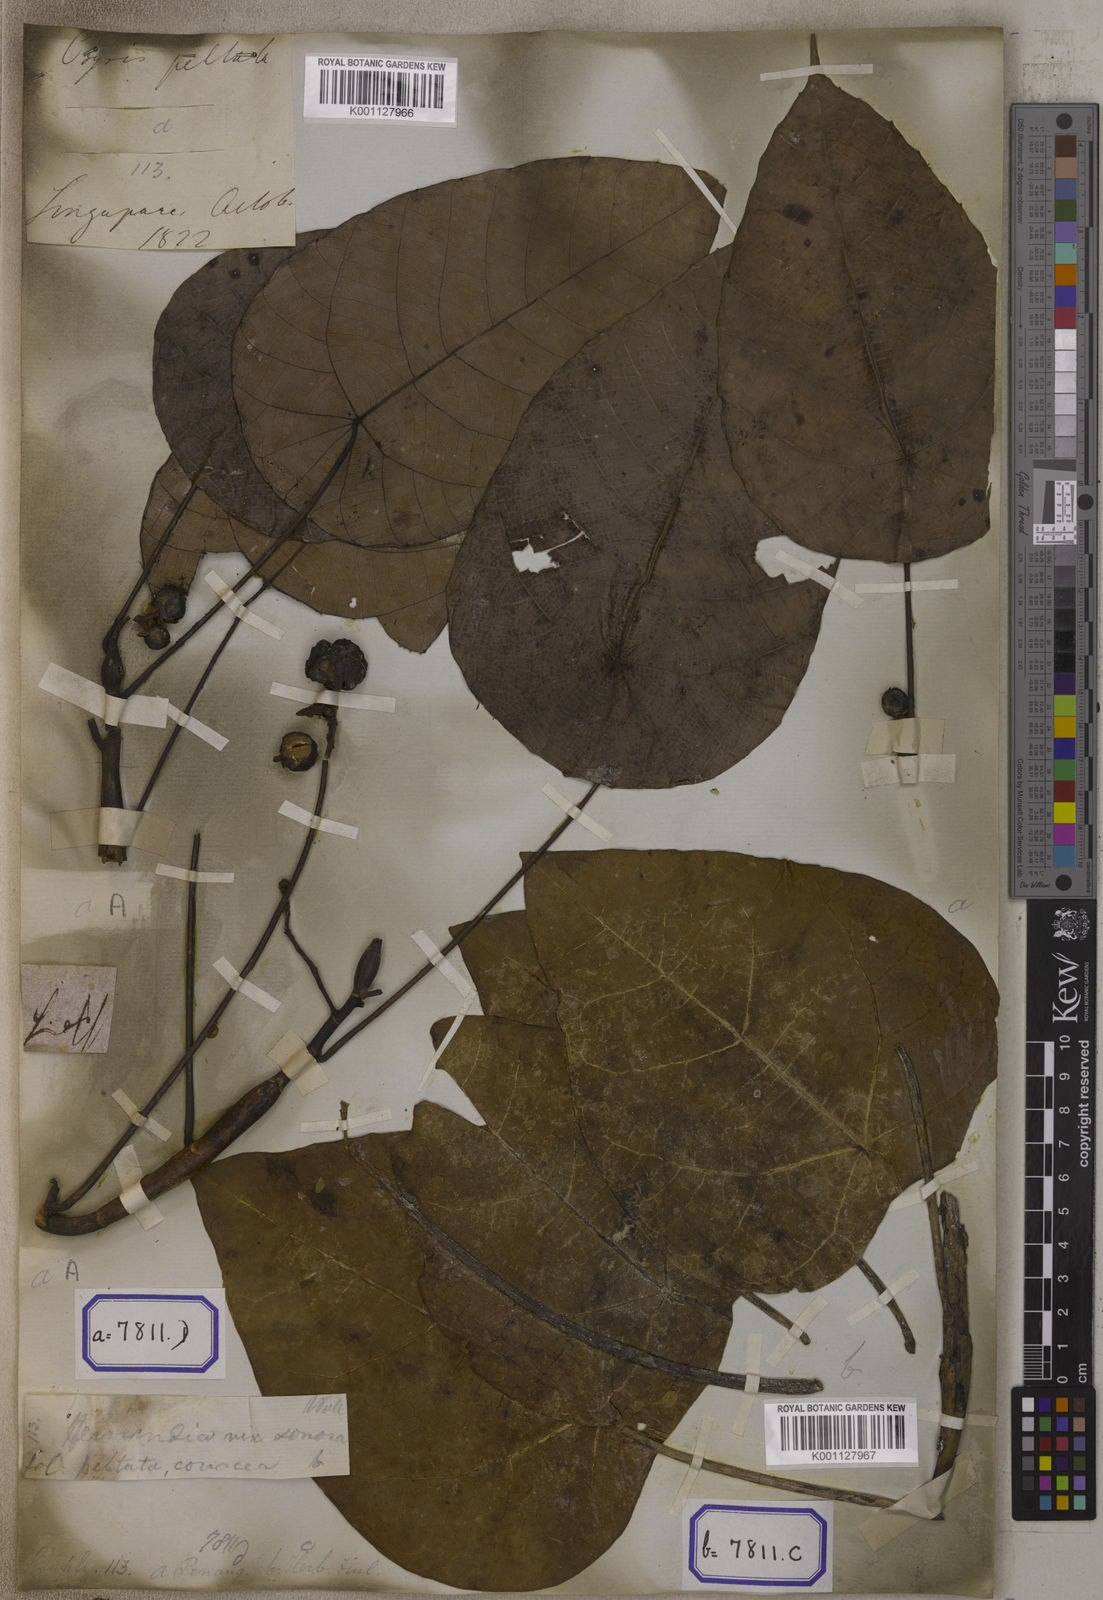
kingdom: Plantae
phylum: Tracheophyta
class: Magnoliopsida
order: Malpighiales
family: Euphorbiaceae
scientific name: Euphorbiaceae
